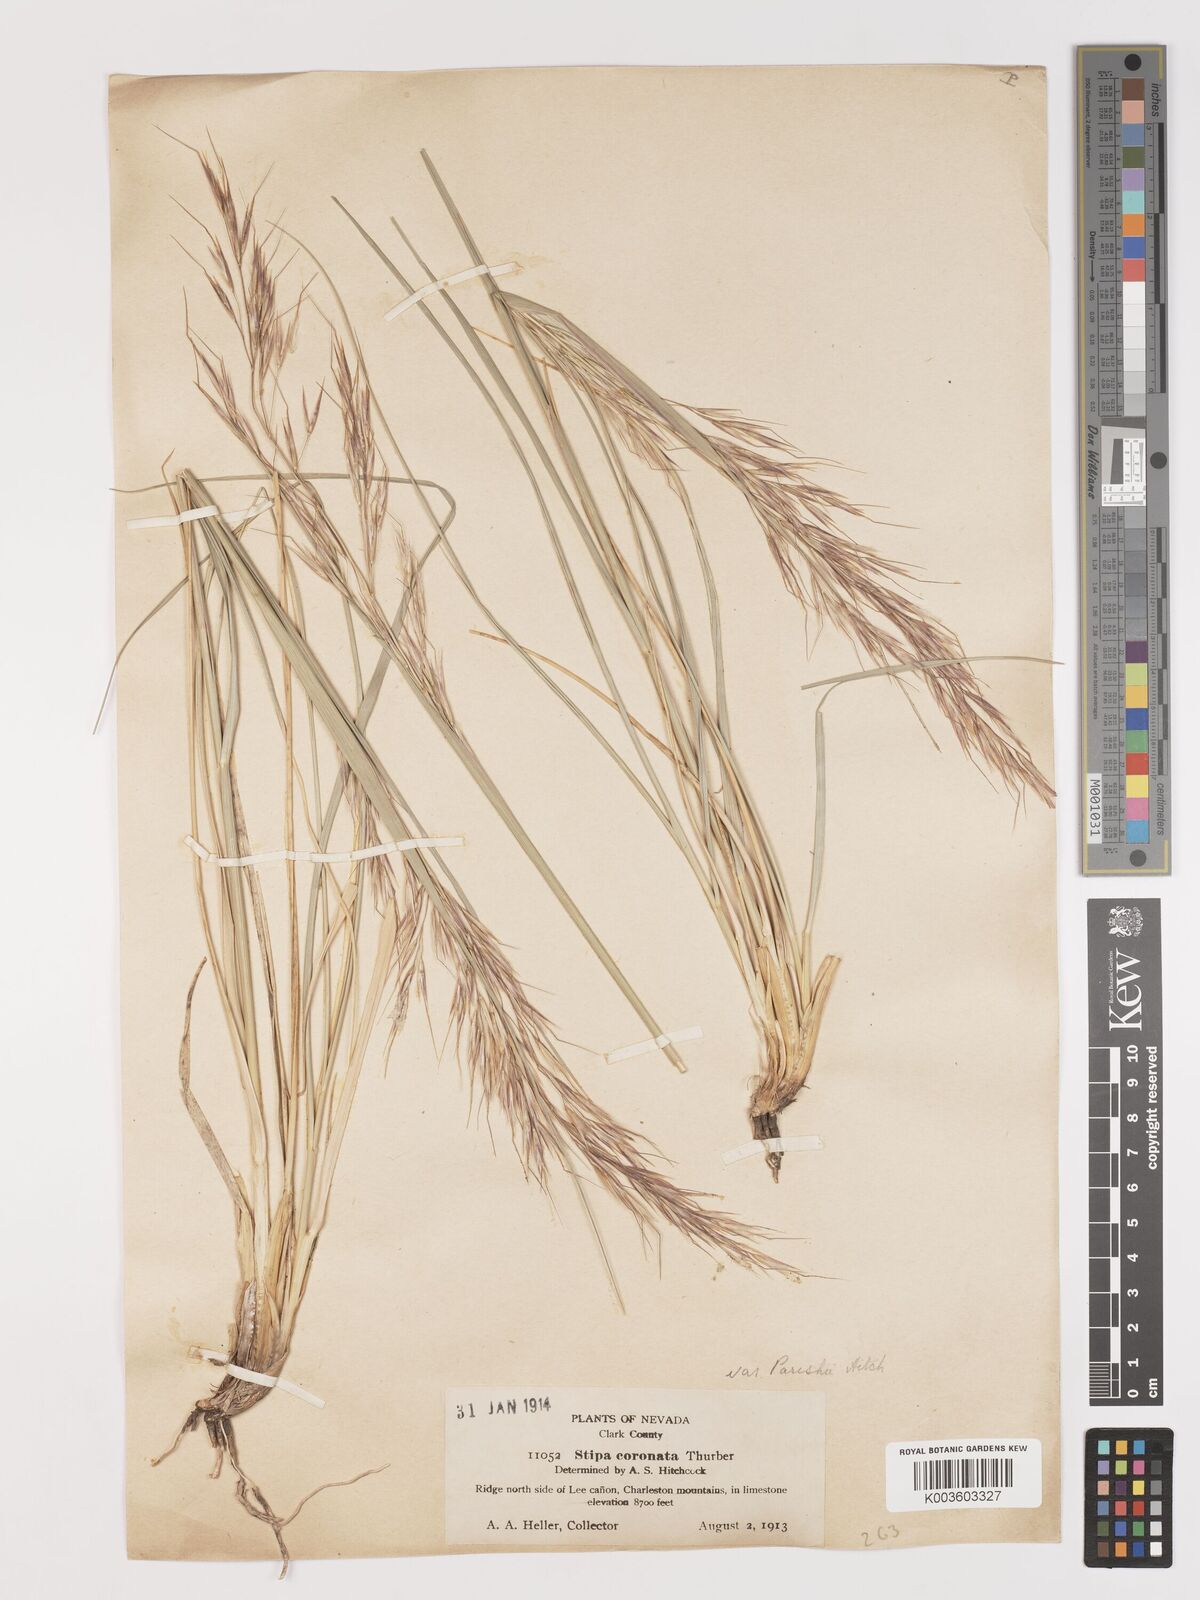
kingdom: Plantae
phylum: Tracheophyta
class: Liliopsida
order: Poales
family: Poaceae
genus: Hesperostipa
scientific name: Hesperostipa comata
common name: Needle-and-thread grass
